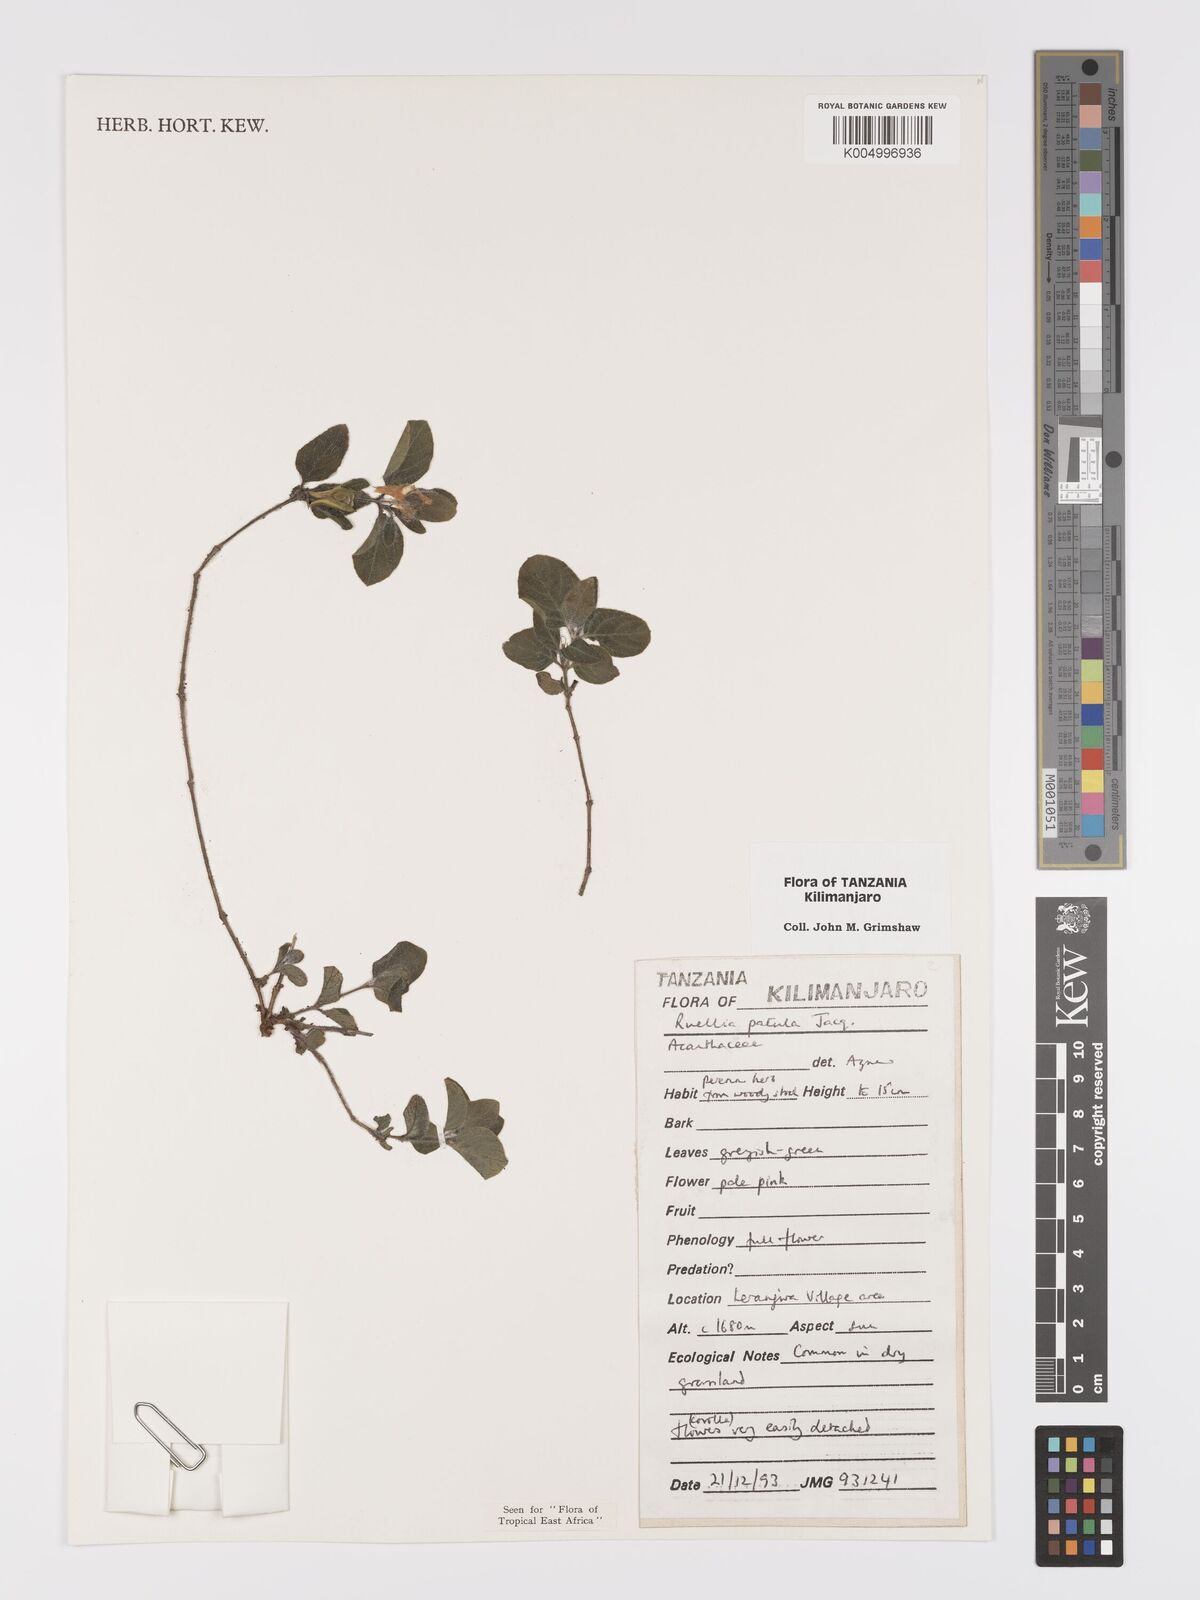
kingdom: Plantae
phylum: Tracheophyta
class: Magnoliopsida
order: Lamiales
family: Acanthaceae
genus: Ruellia
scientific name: Ruellia patula
